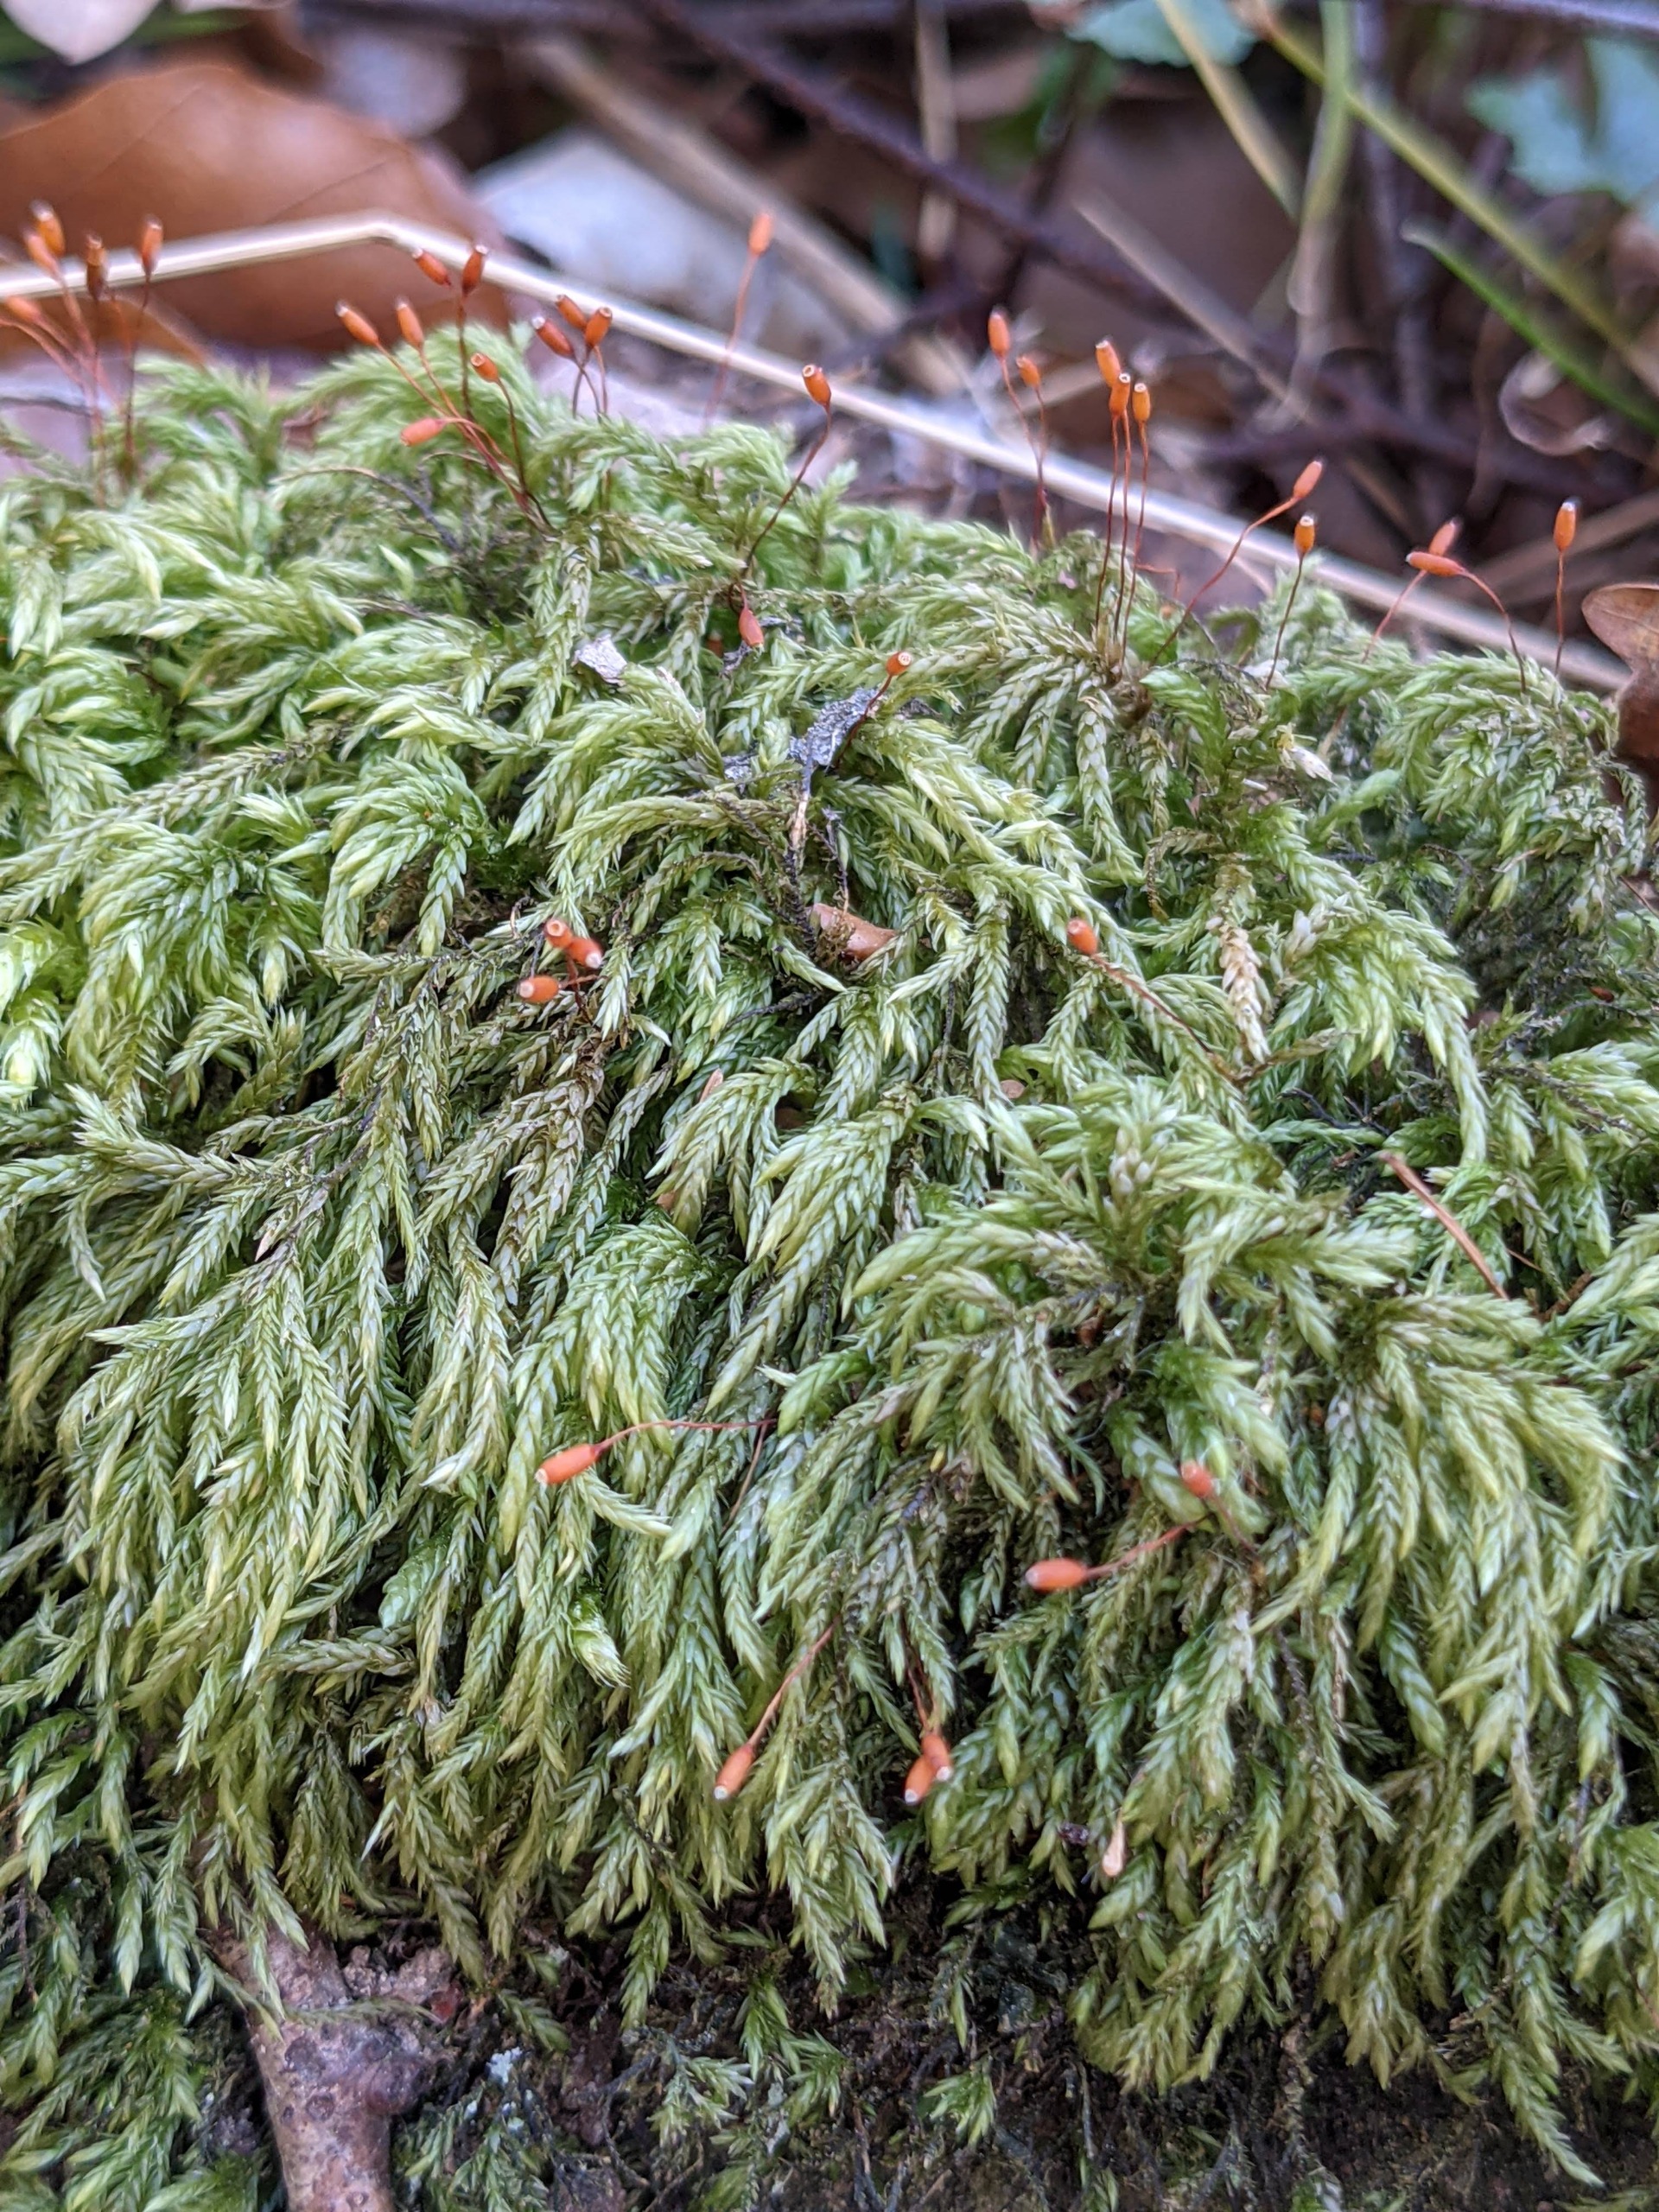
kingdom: Plantae
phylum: Bryophyta
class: Bryopsida
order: Hypnales
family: Lembophyllaceae
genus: Isothecium
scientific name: Isothecium alopecuroides
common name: Stor stammemos
